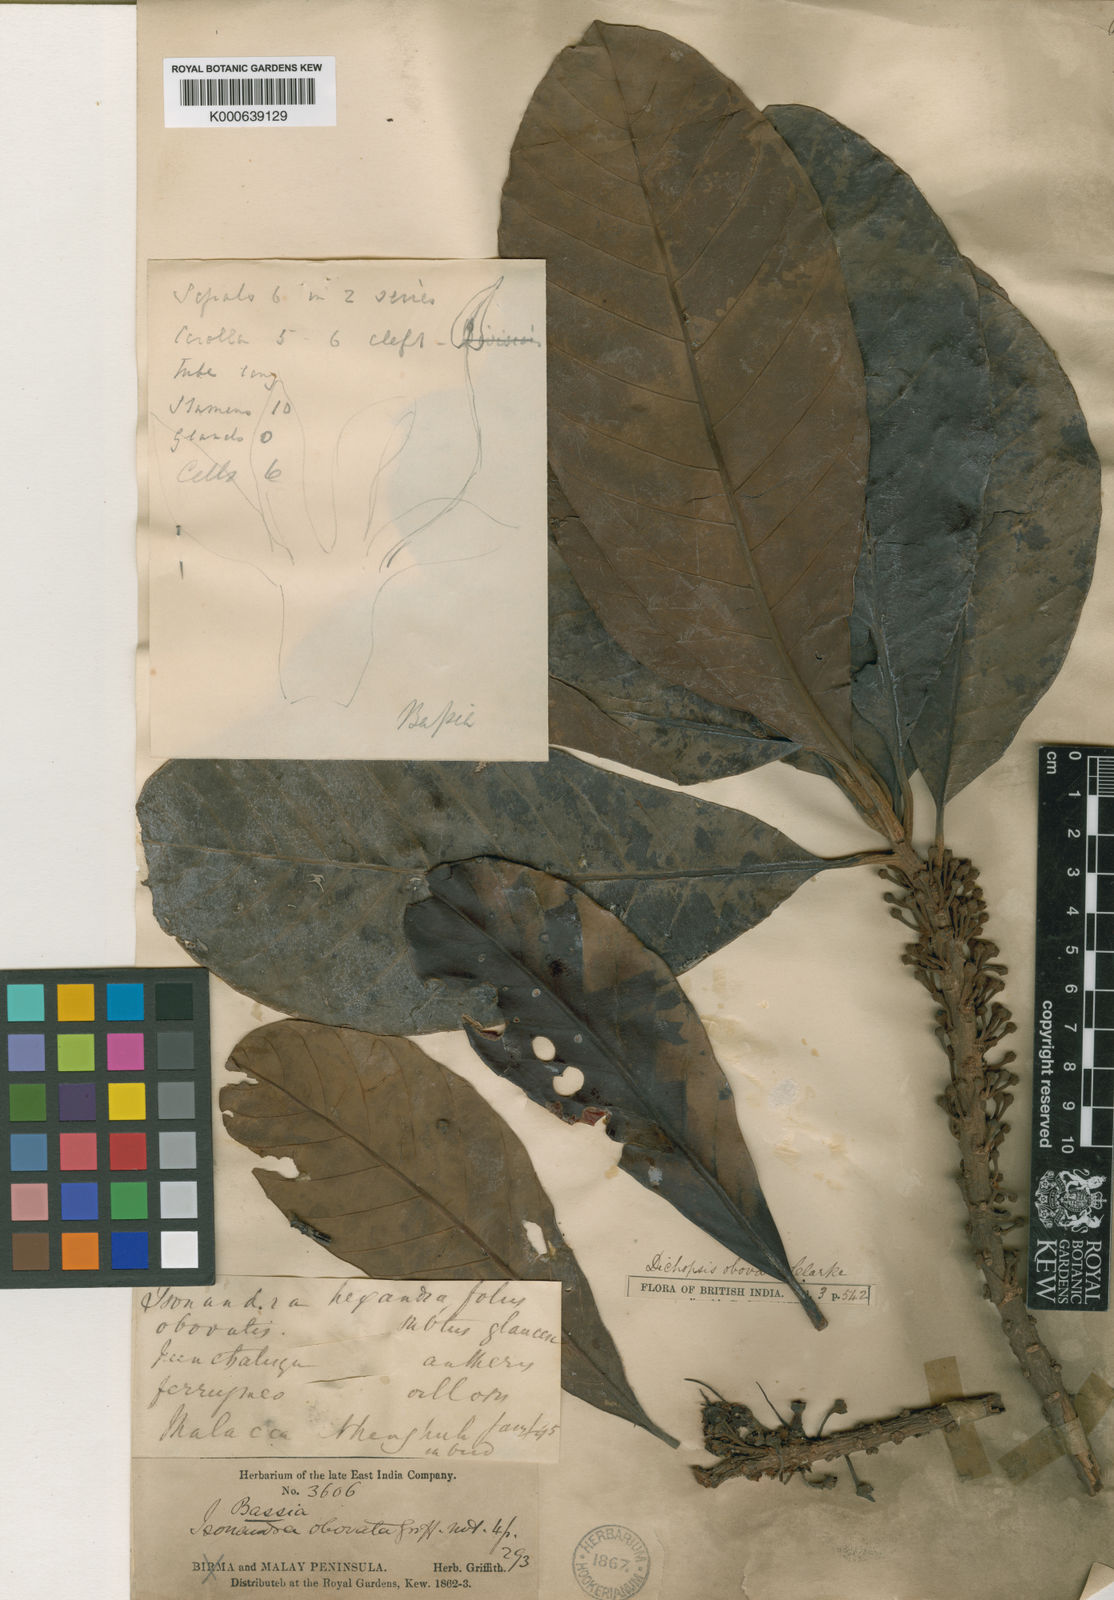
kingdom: Plantae
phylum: Tracheophyta
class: Magnoliopsida
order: Ericales
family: Sapotaceae
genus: Palaquium
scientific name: Palaquium obovatum
